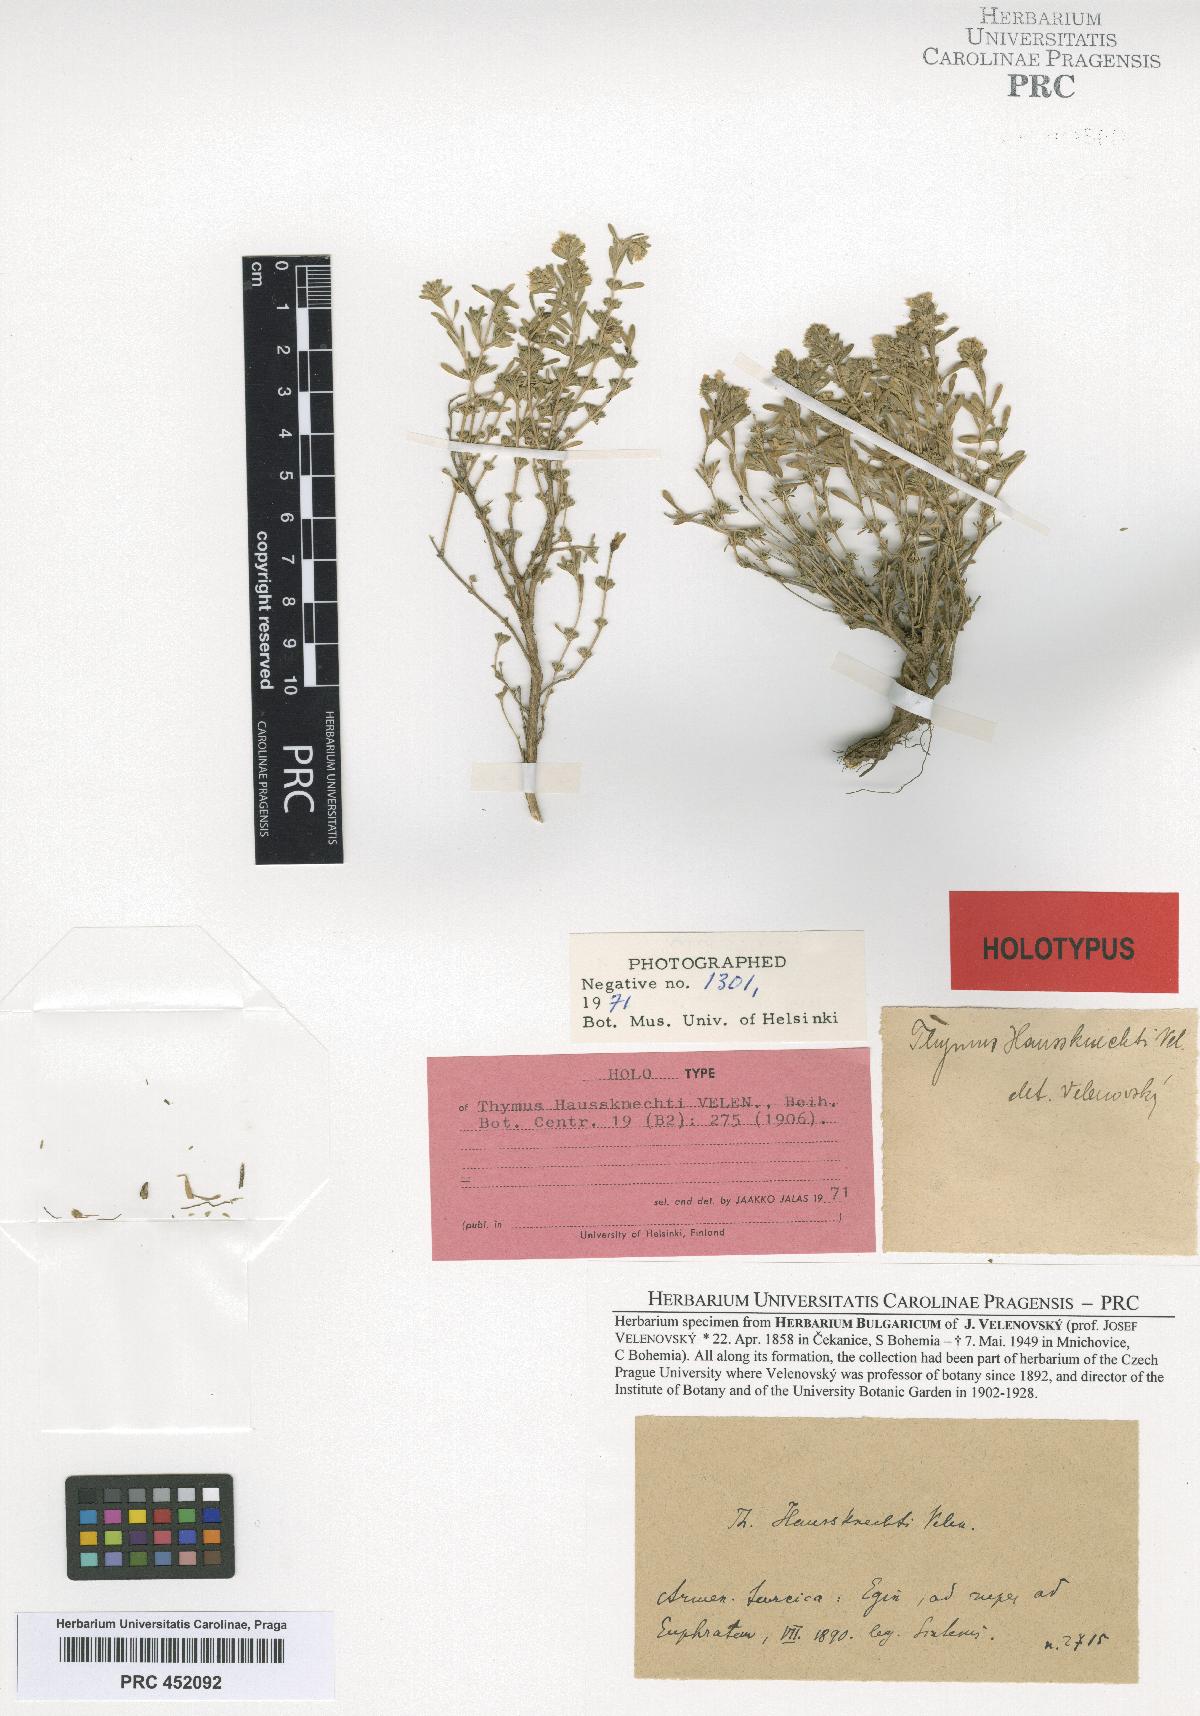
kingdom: Plantae
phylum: Tracheophyta
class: Magnoliopsida
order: Lamiales
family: Lamiaceae
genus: Thymus
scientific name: Thymus haussknechtii
